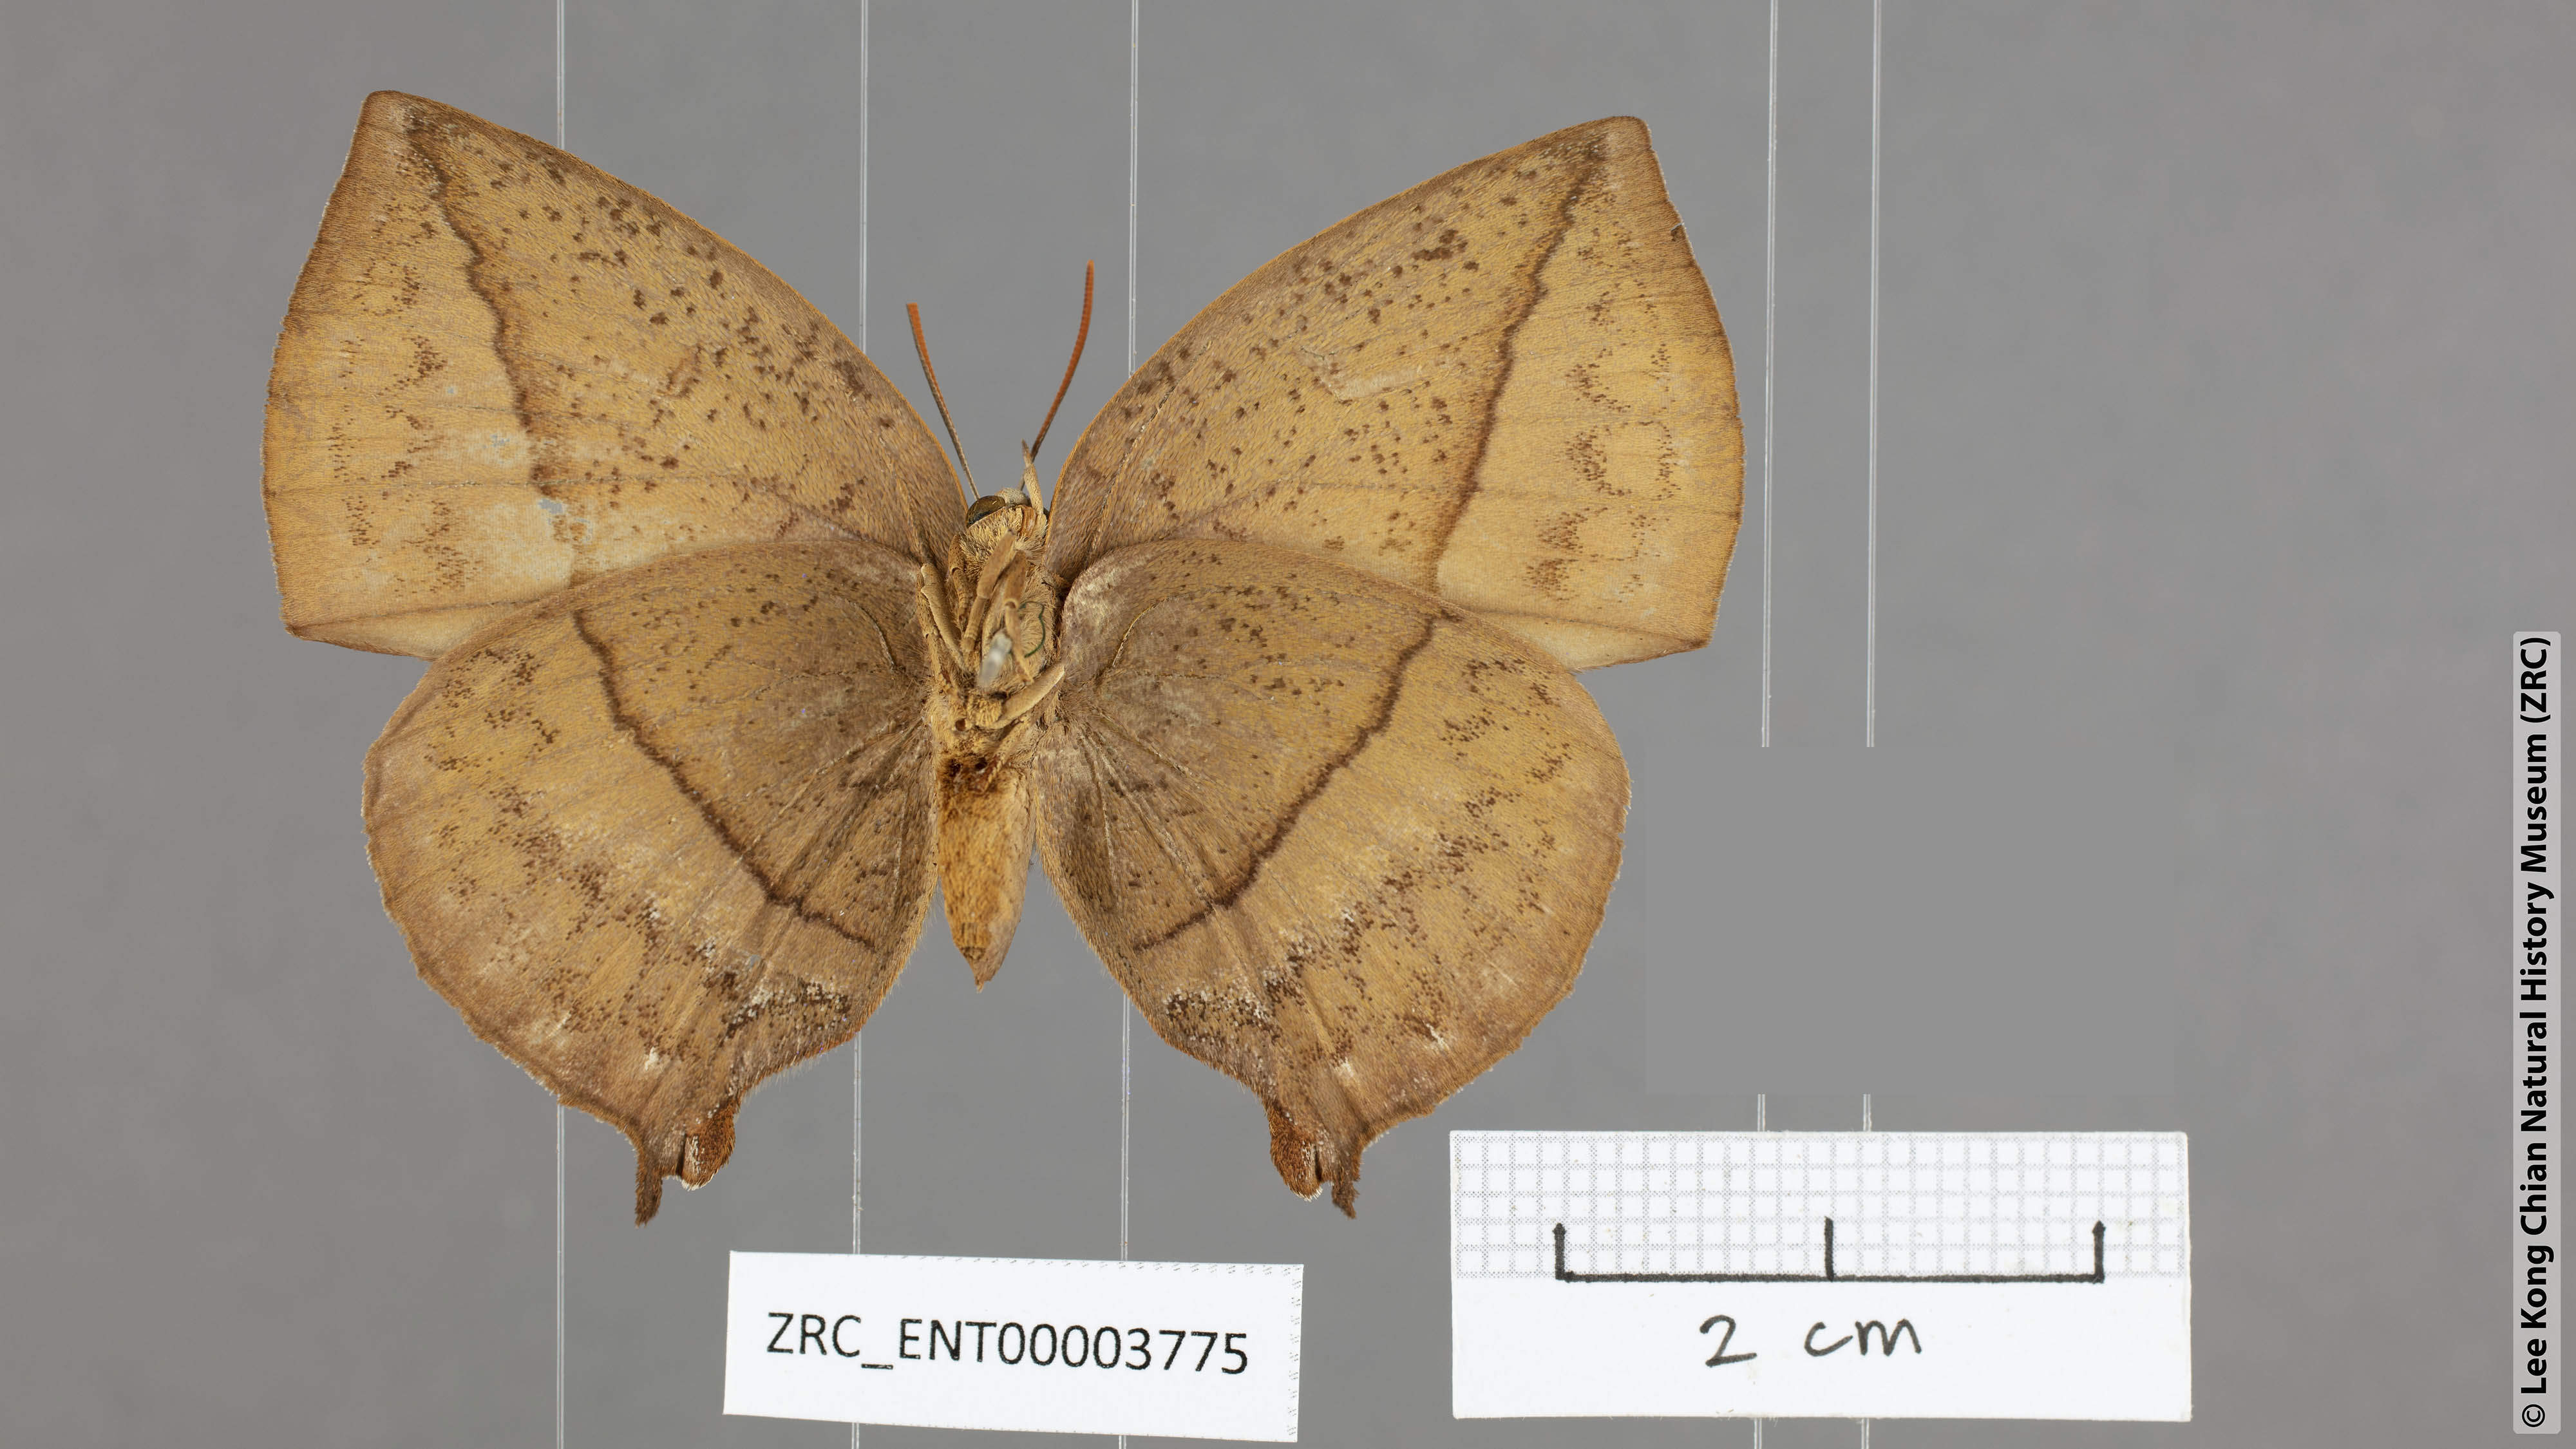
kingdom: Animalia
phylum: Arthropoda
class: Insecta
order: Lepidoptera
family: Lycaenidae
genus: Amblypodia
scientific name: Amblypodia anita
